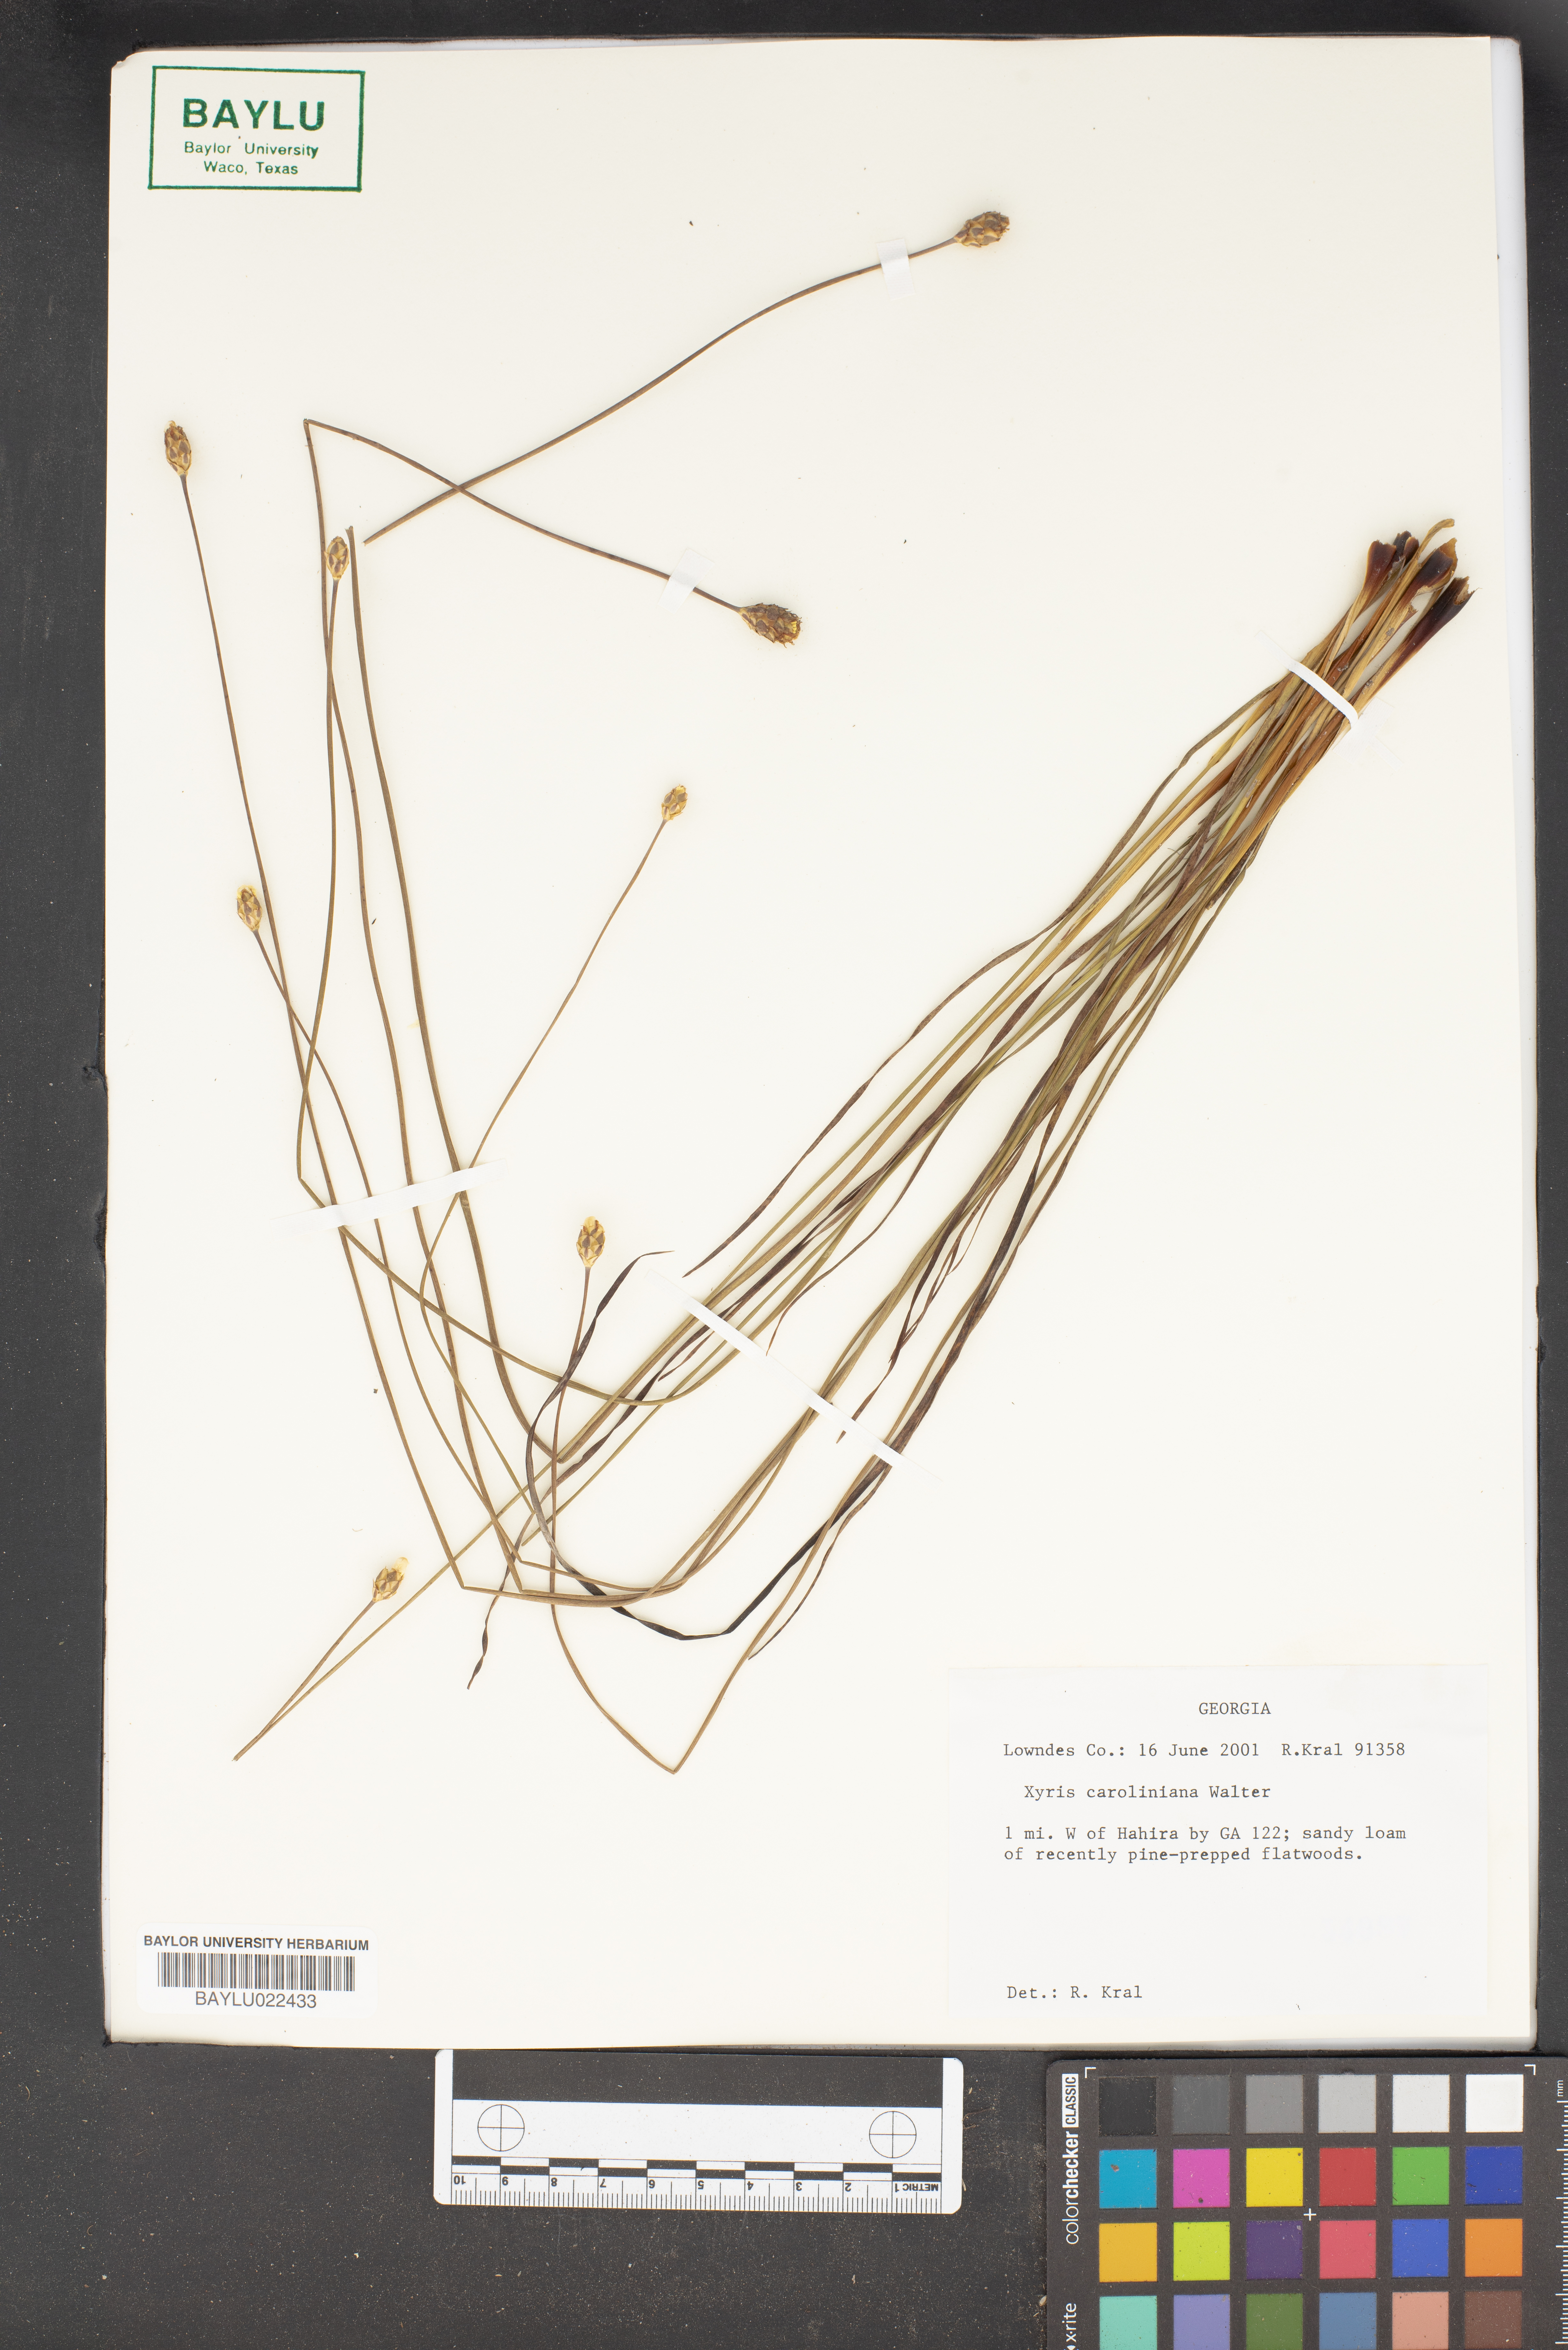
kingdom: Plantae
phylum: Tracheophyta
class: Liliopsida
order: Poales
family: Xyridaceae
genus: Xyris
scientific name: Xyris caroliniana
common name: Carolina yellow-eyed-grass
